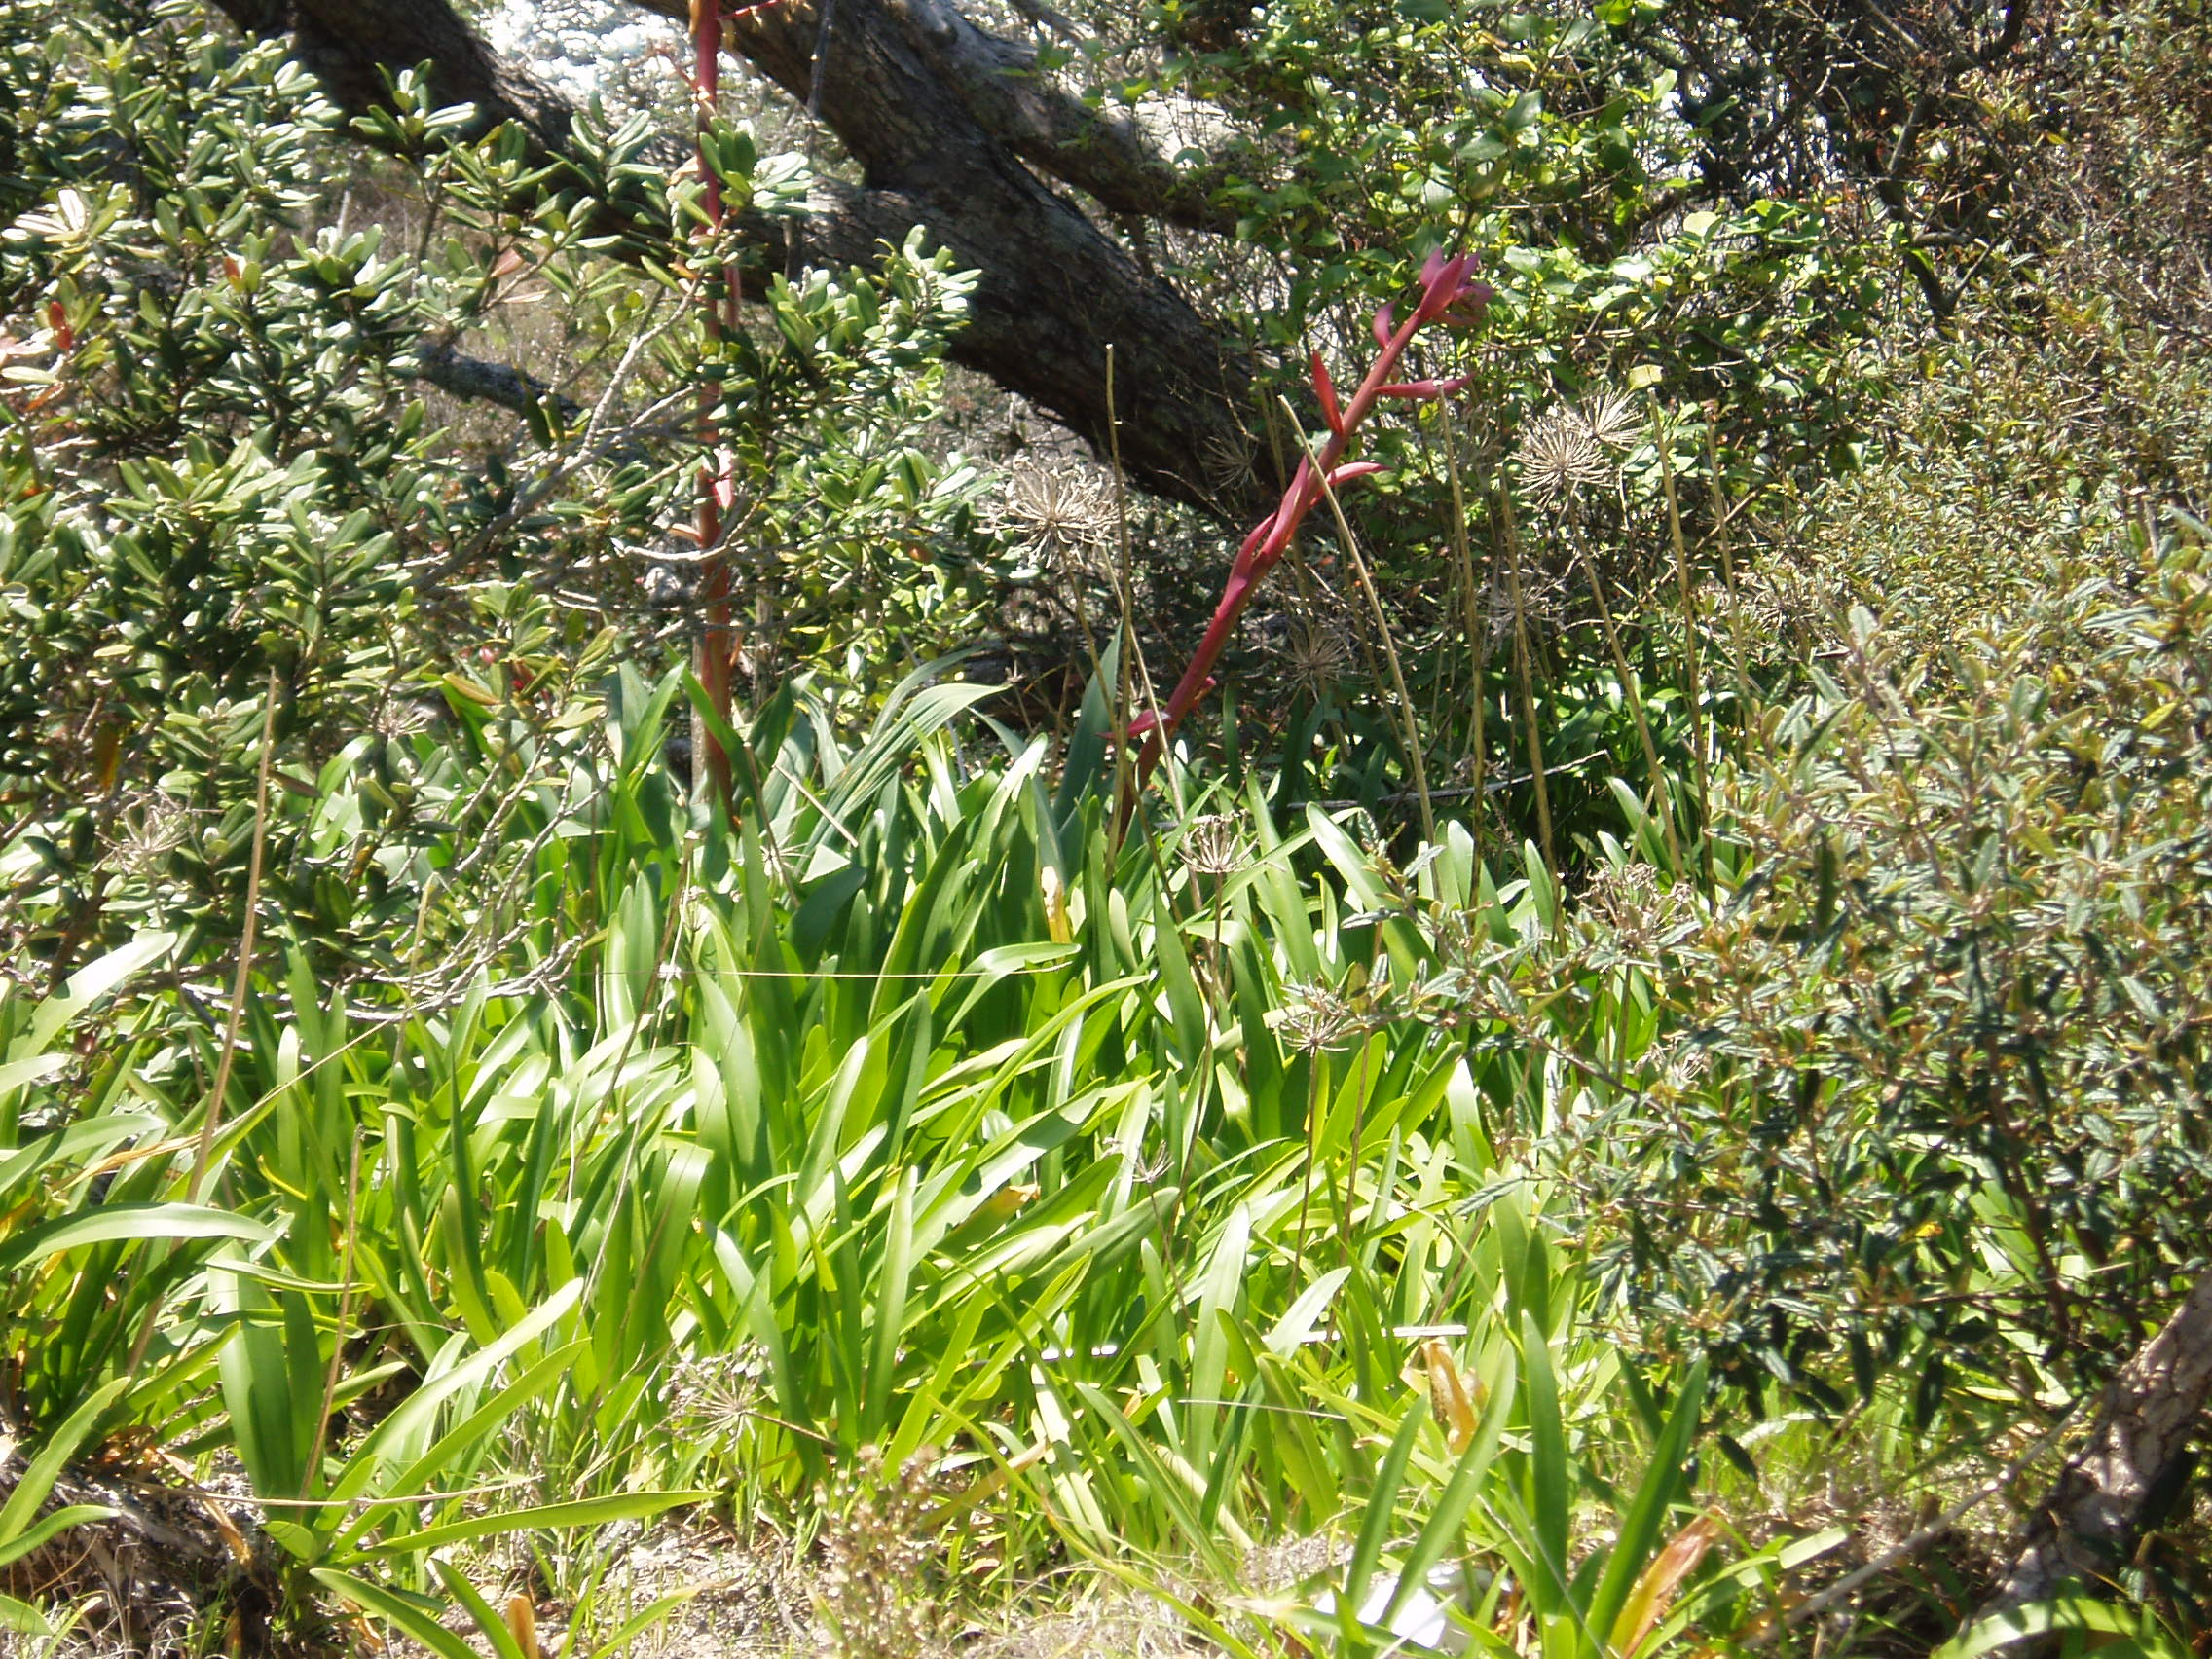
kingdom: Plantae
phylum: Tracheophyta
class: Liliopsida
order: Asparagales
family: Asparagaceae
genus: Beschorneria
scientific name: Beschorneria yuccoides
